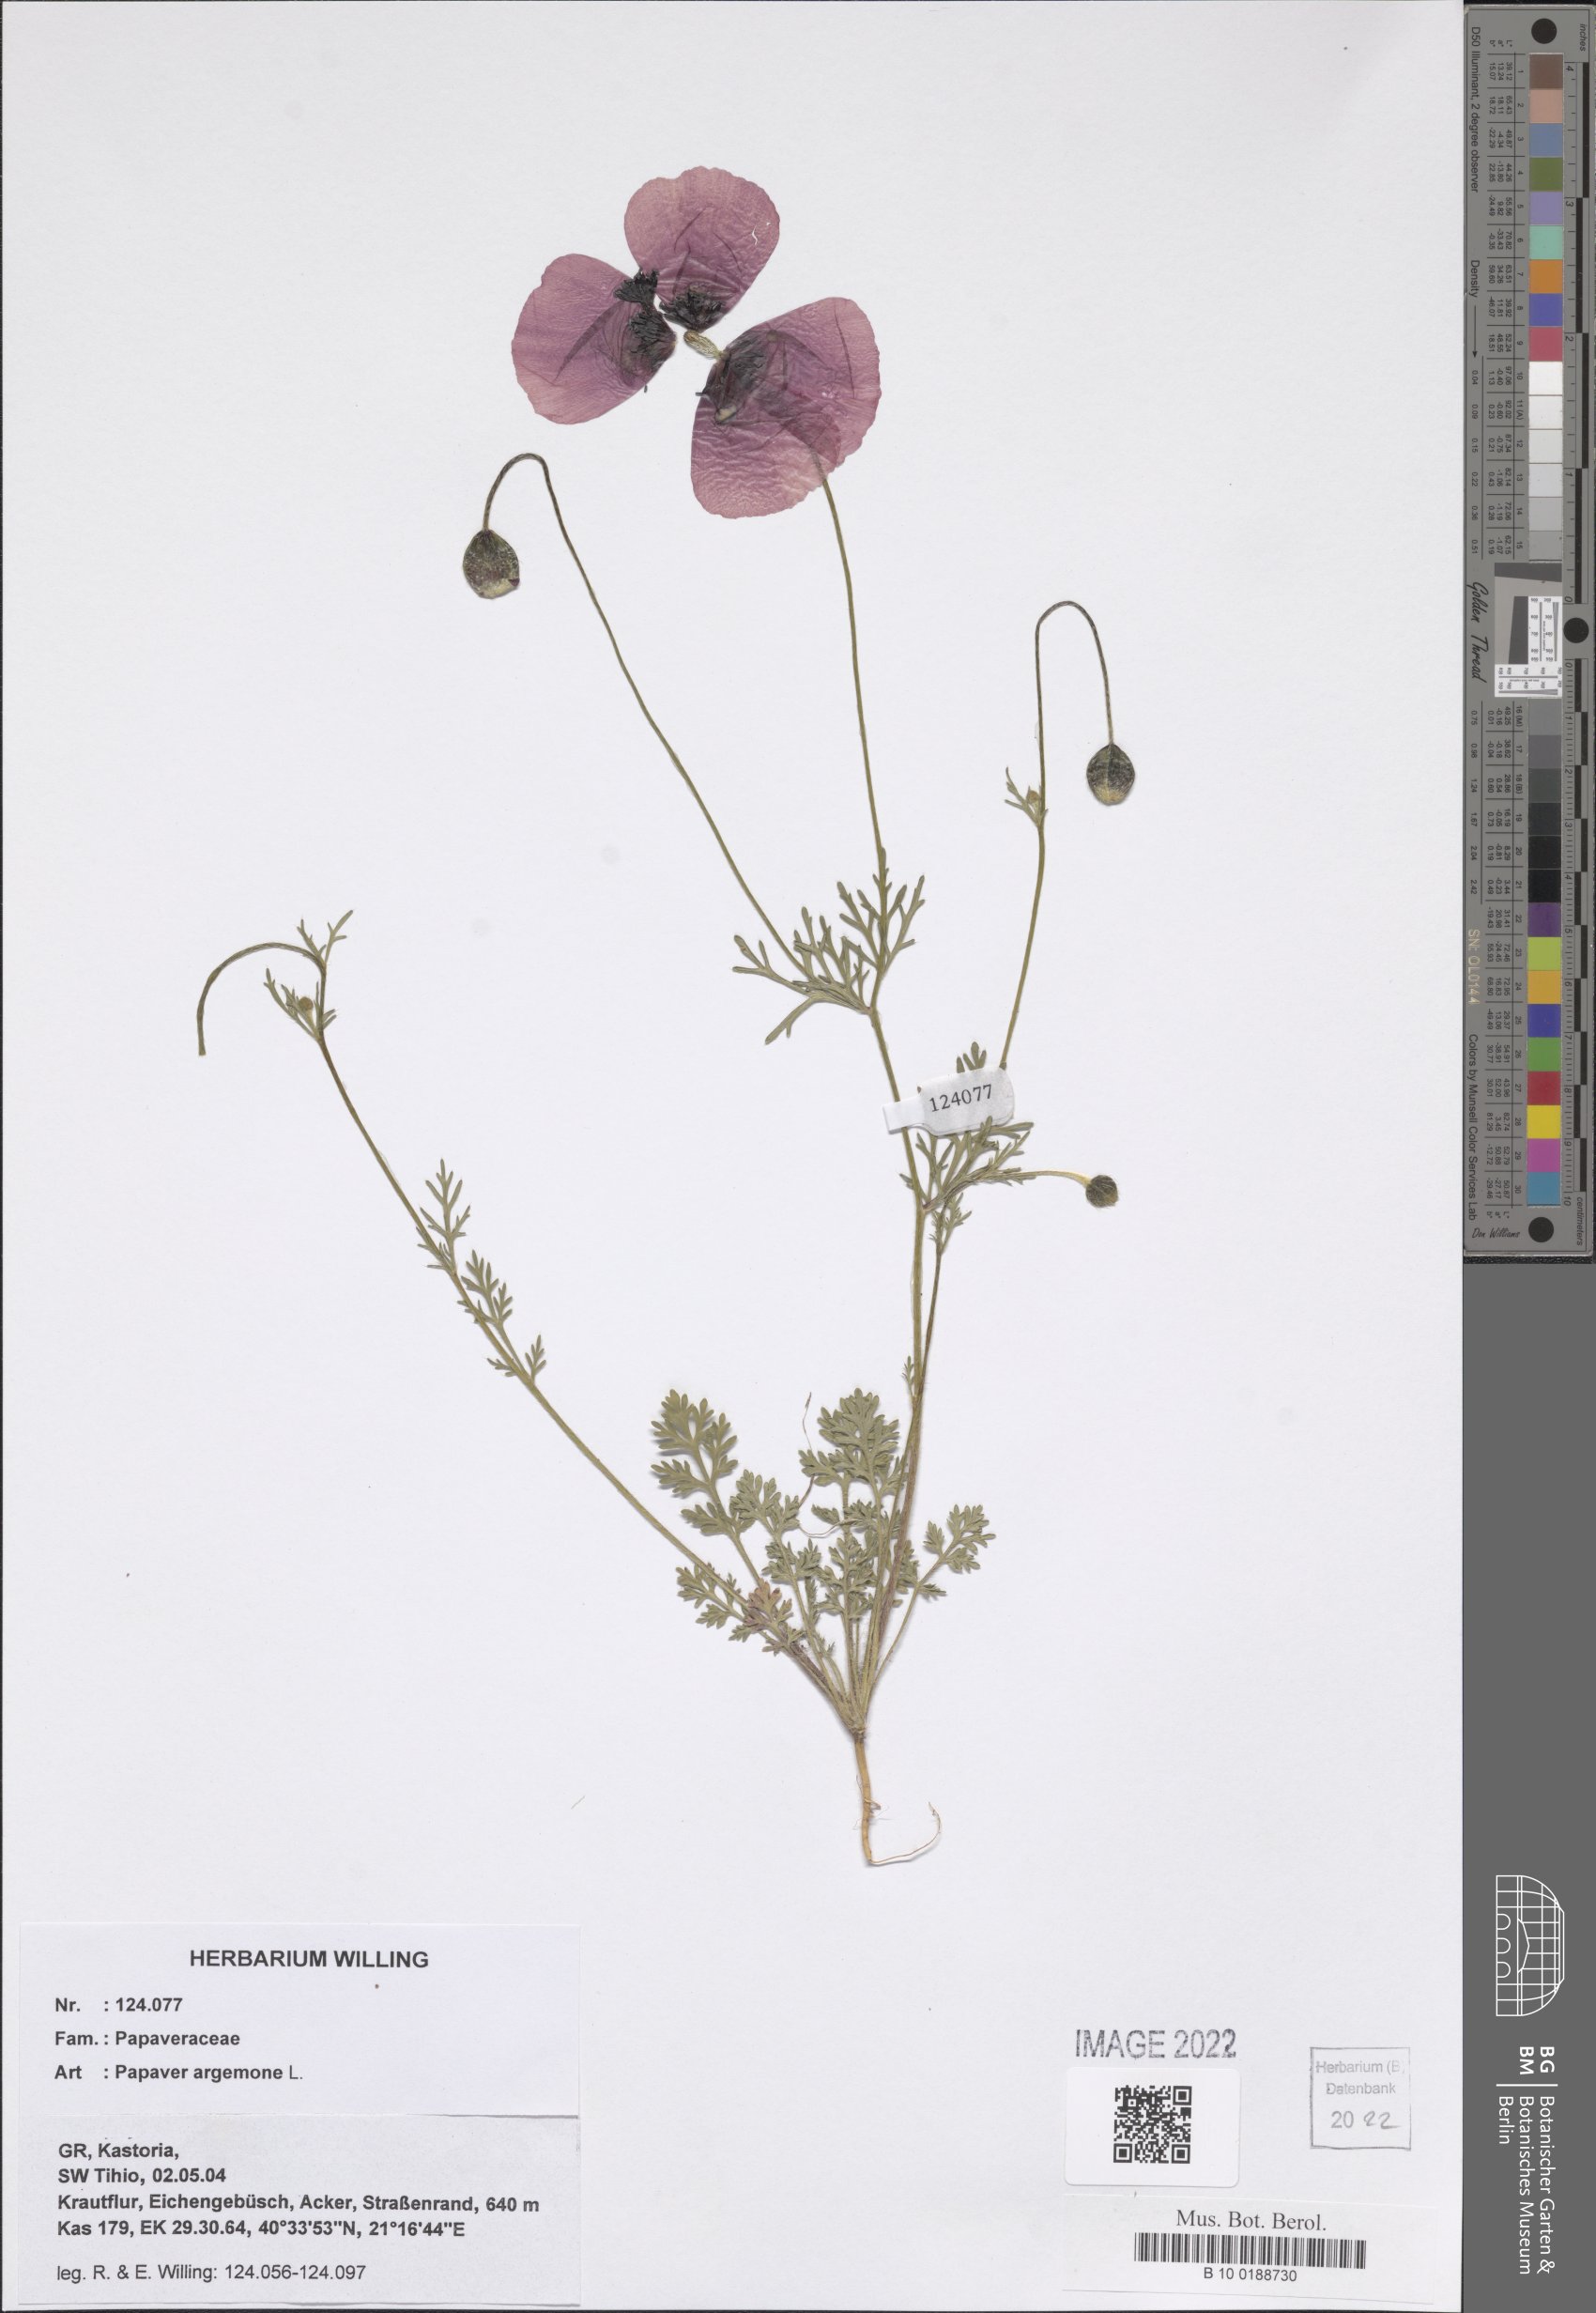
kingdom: Plantae
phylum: Tracheophyta
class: Magnoliopsida
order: Ranunculales
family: Papaveraceae
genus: Roemeria
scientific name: Roemeria argemone
